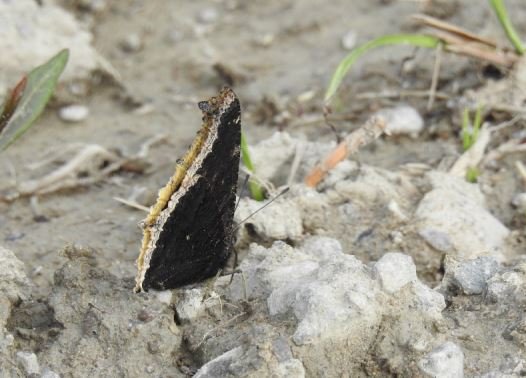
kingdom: Animalia
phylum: Arthropoda
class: Insecta
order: Lepidoptera
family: Nymphalidae
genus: Nymphalis
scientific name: Nymphalis antiopa
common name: Mourning Cloak
